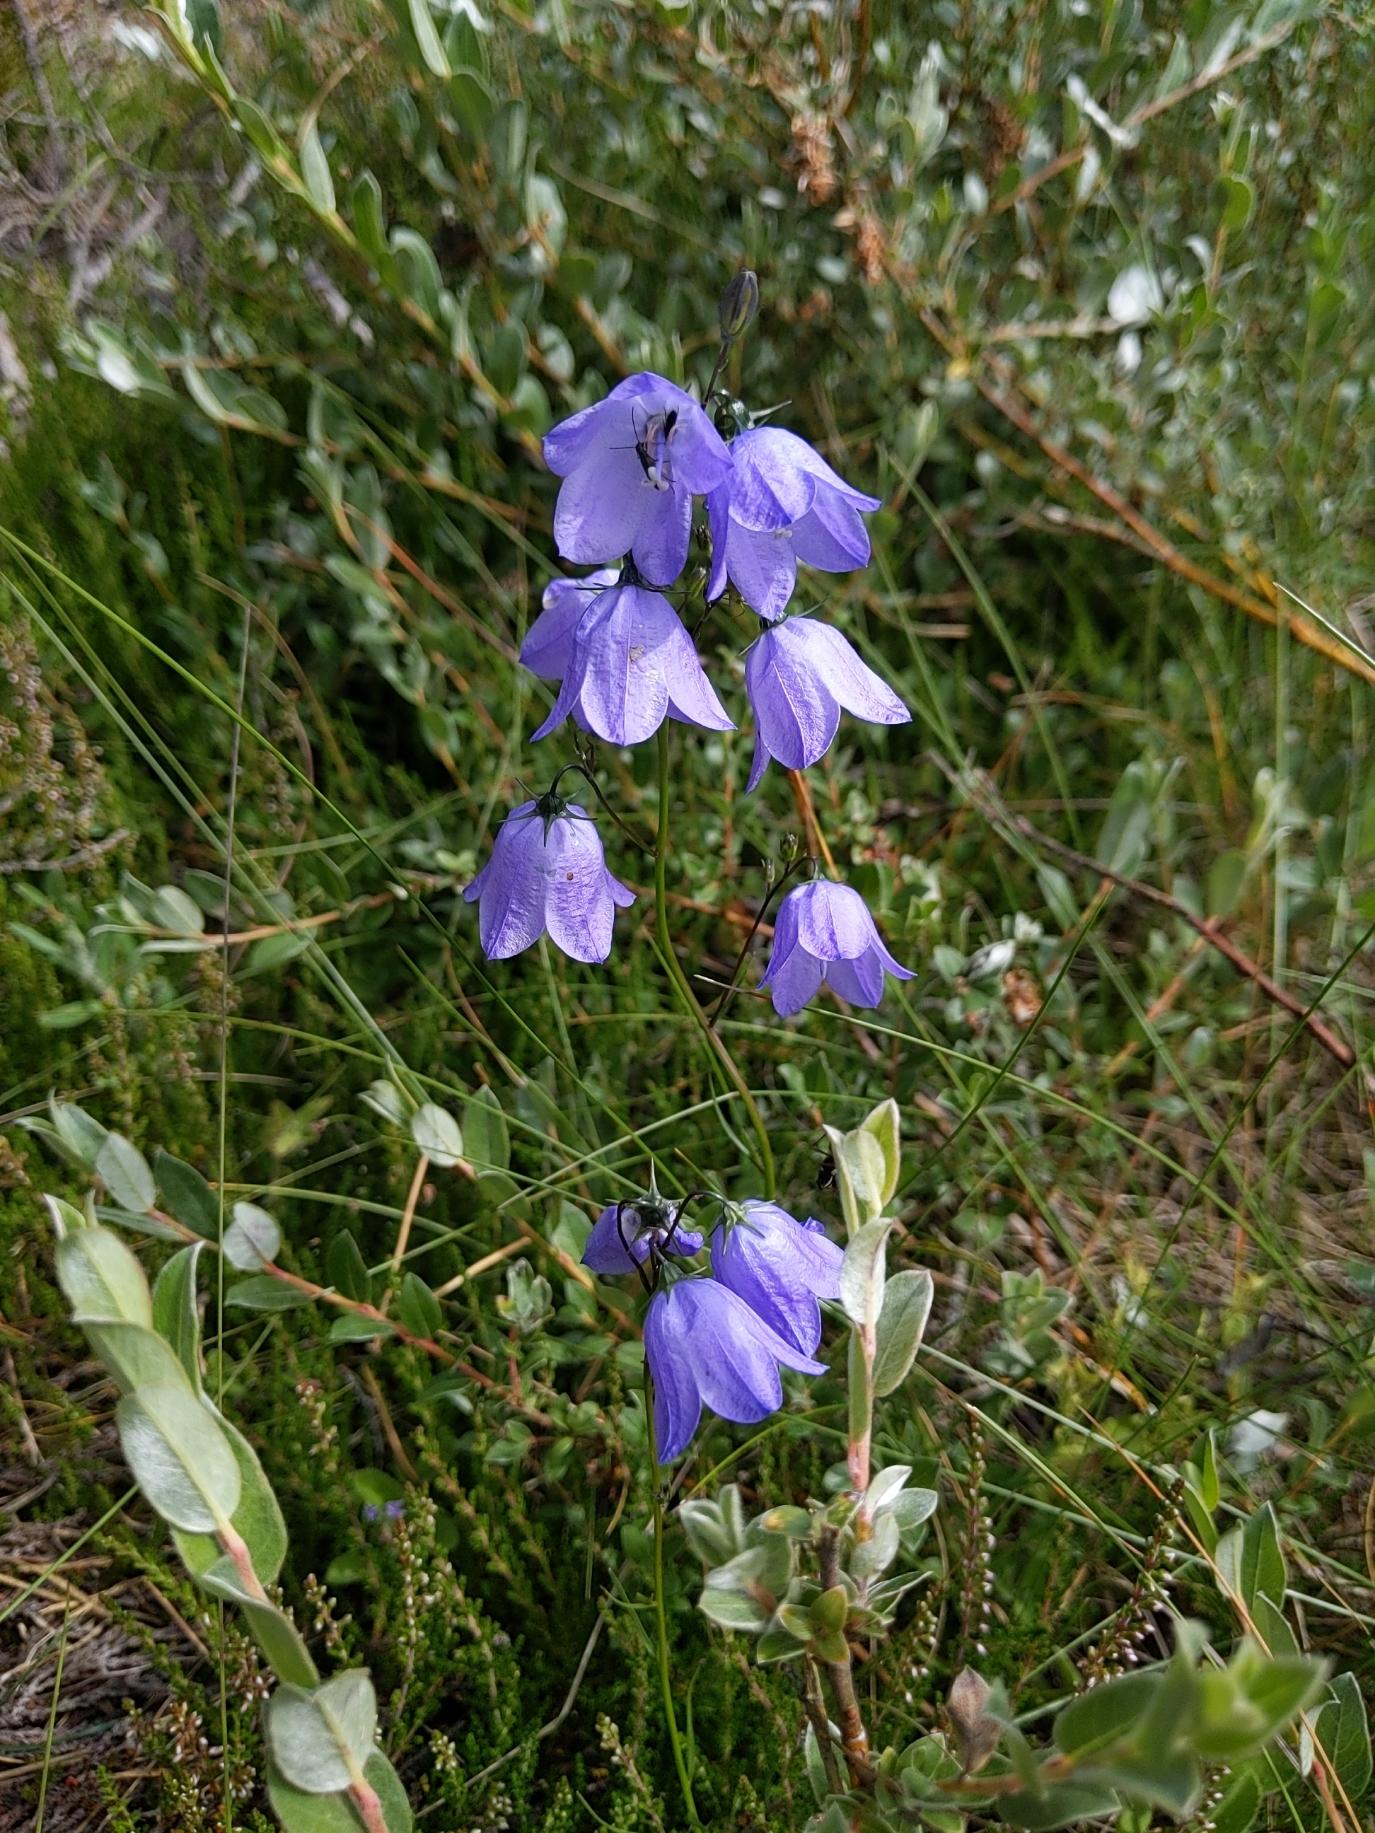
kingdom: Plantae
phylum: Tracheophyta
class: Magnoliopsida
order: Asterales
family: Campanulaceae
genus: Campanula
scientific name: Campanula rotundifolia
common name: Liden klokke
